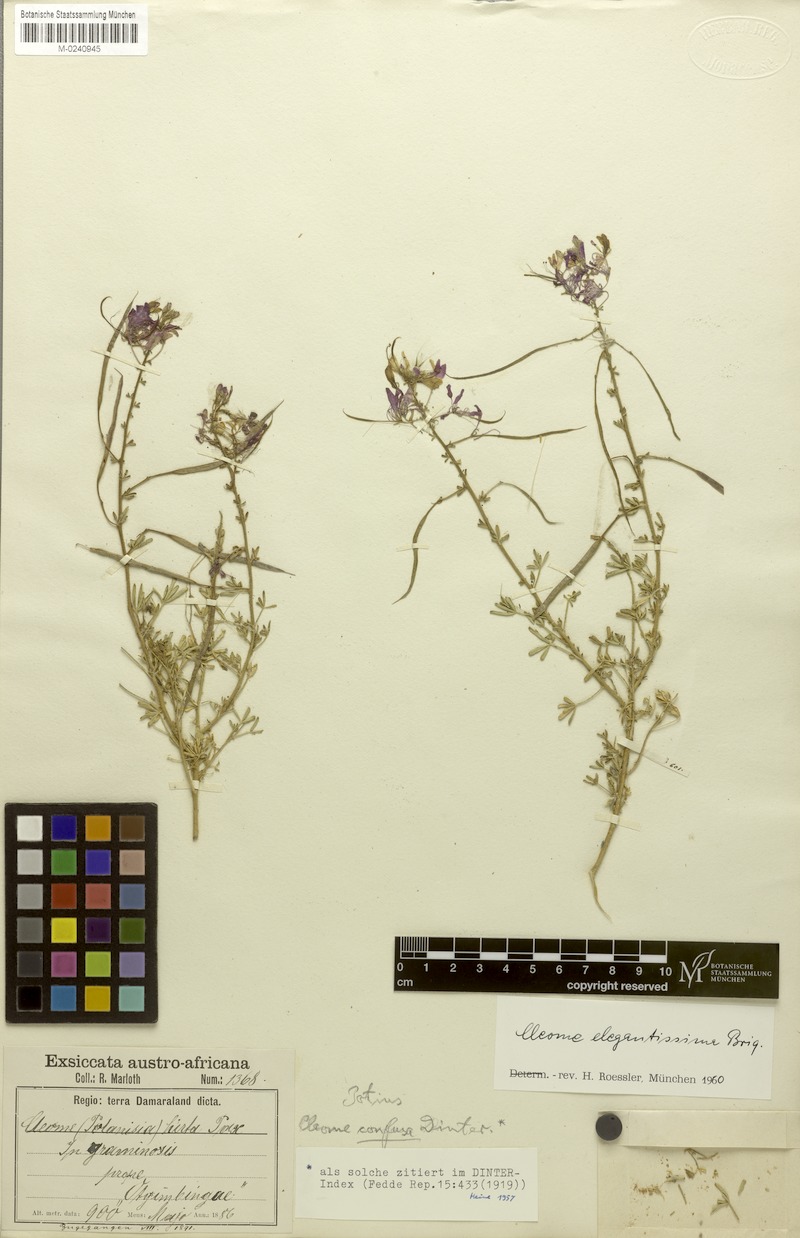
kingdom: Plantae
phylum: Tracheophyta
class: Magnoliopsida
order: Brassicales
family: Cleomaceae
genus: Sieruela
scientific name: Sieruela elegantissima
